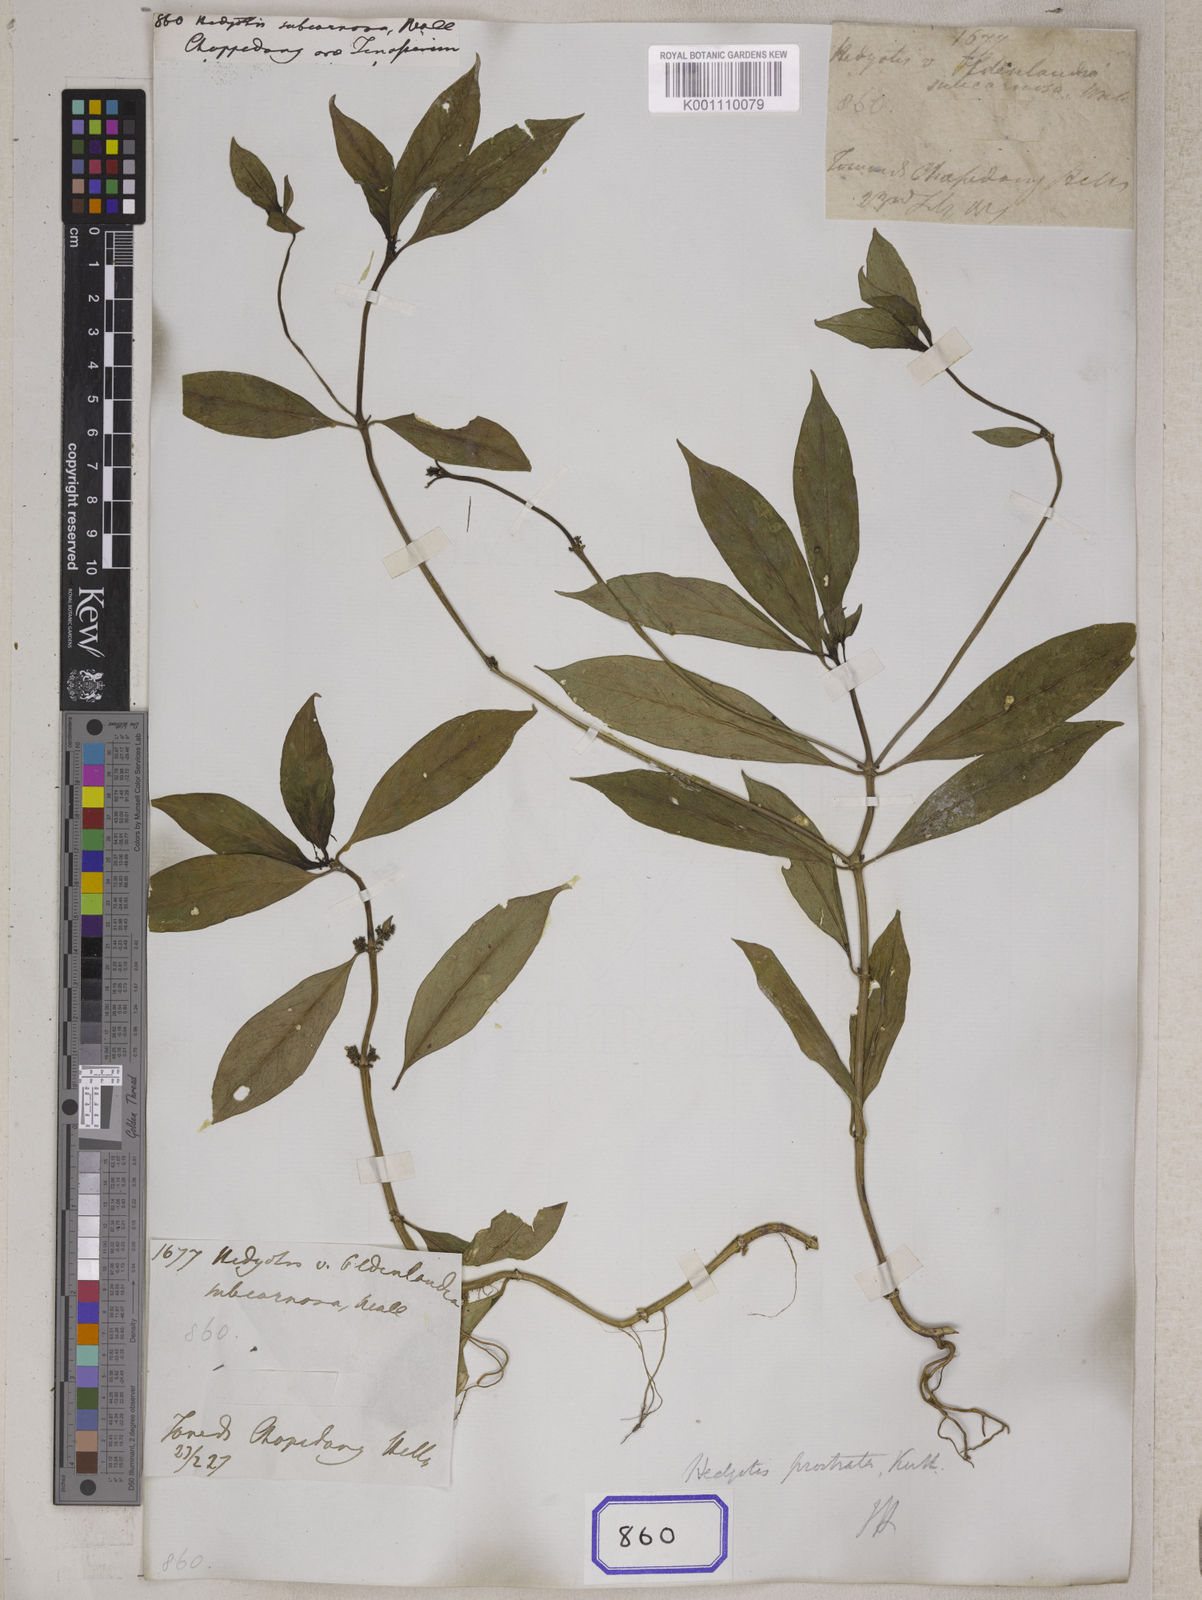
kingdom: Plantae
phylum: Tracheophyta
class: Magnoliopsida
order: Gentianales
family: Rubiaceae
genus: Hedyotis
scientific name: Hedyotis
